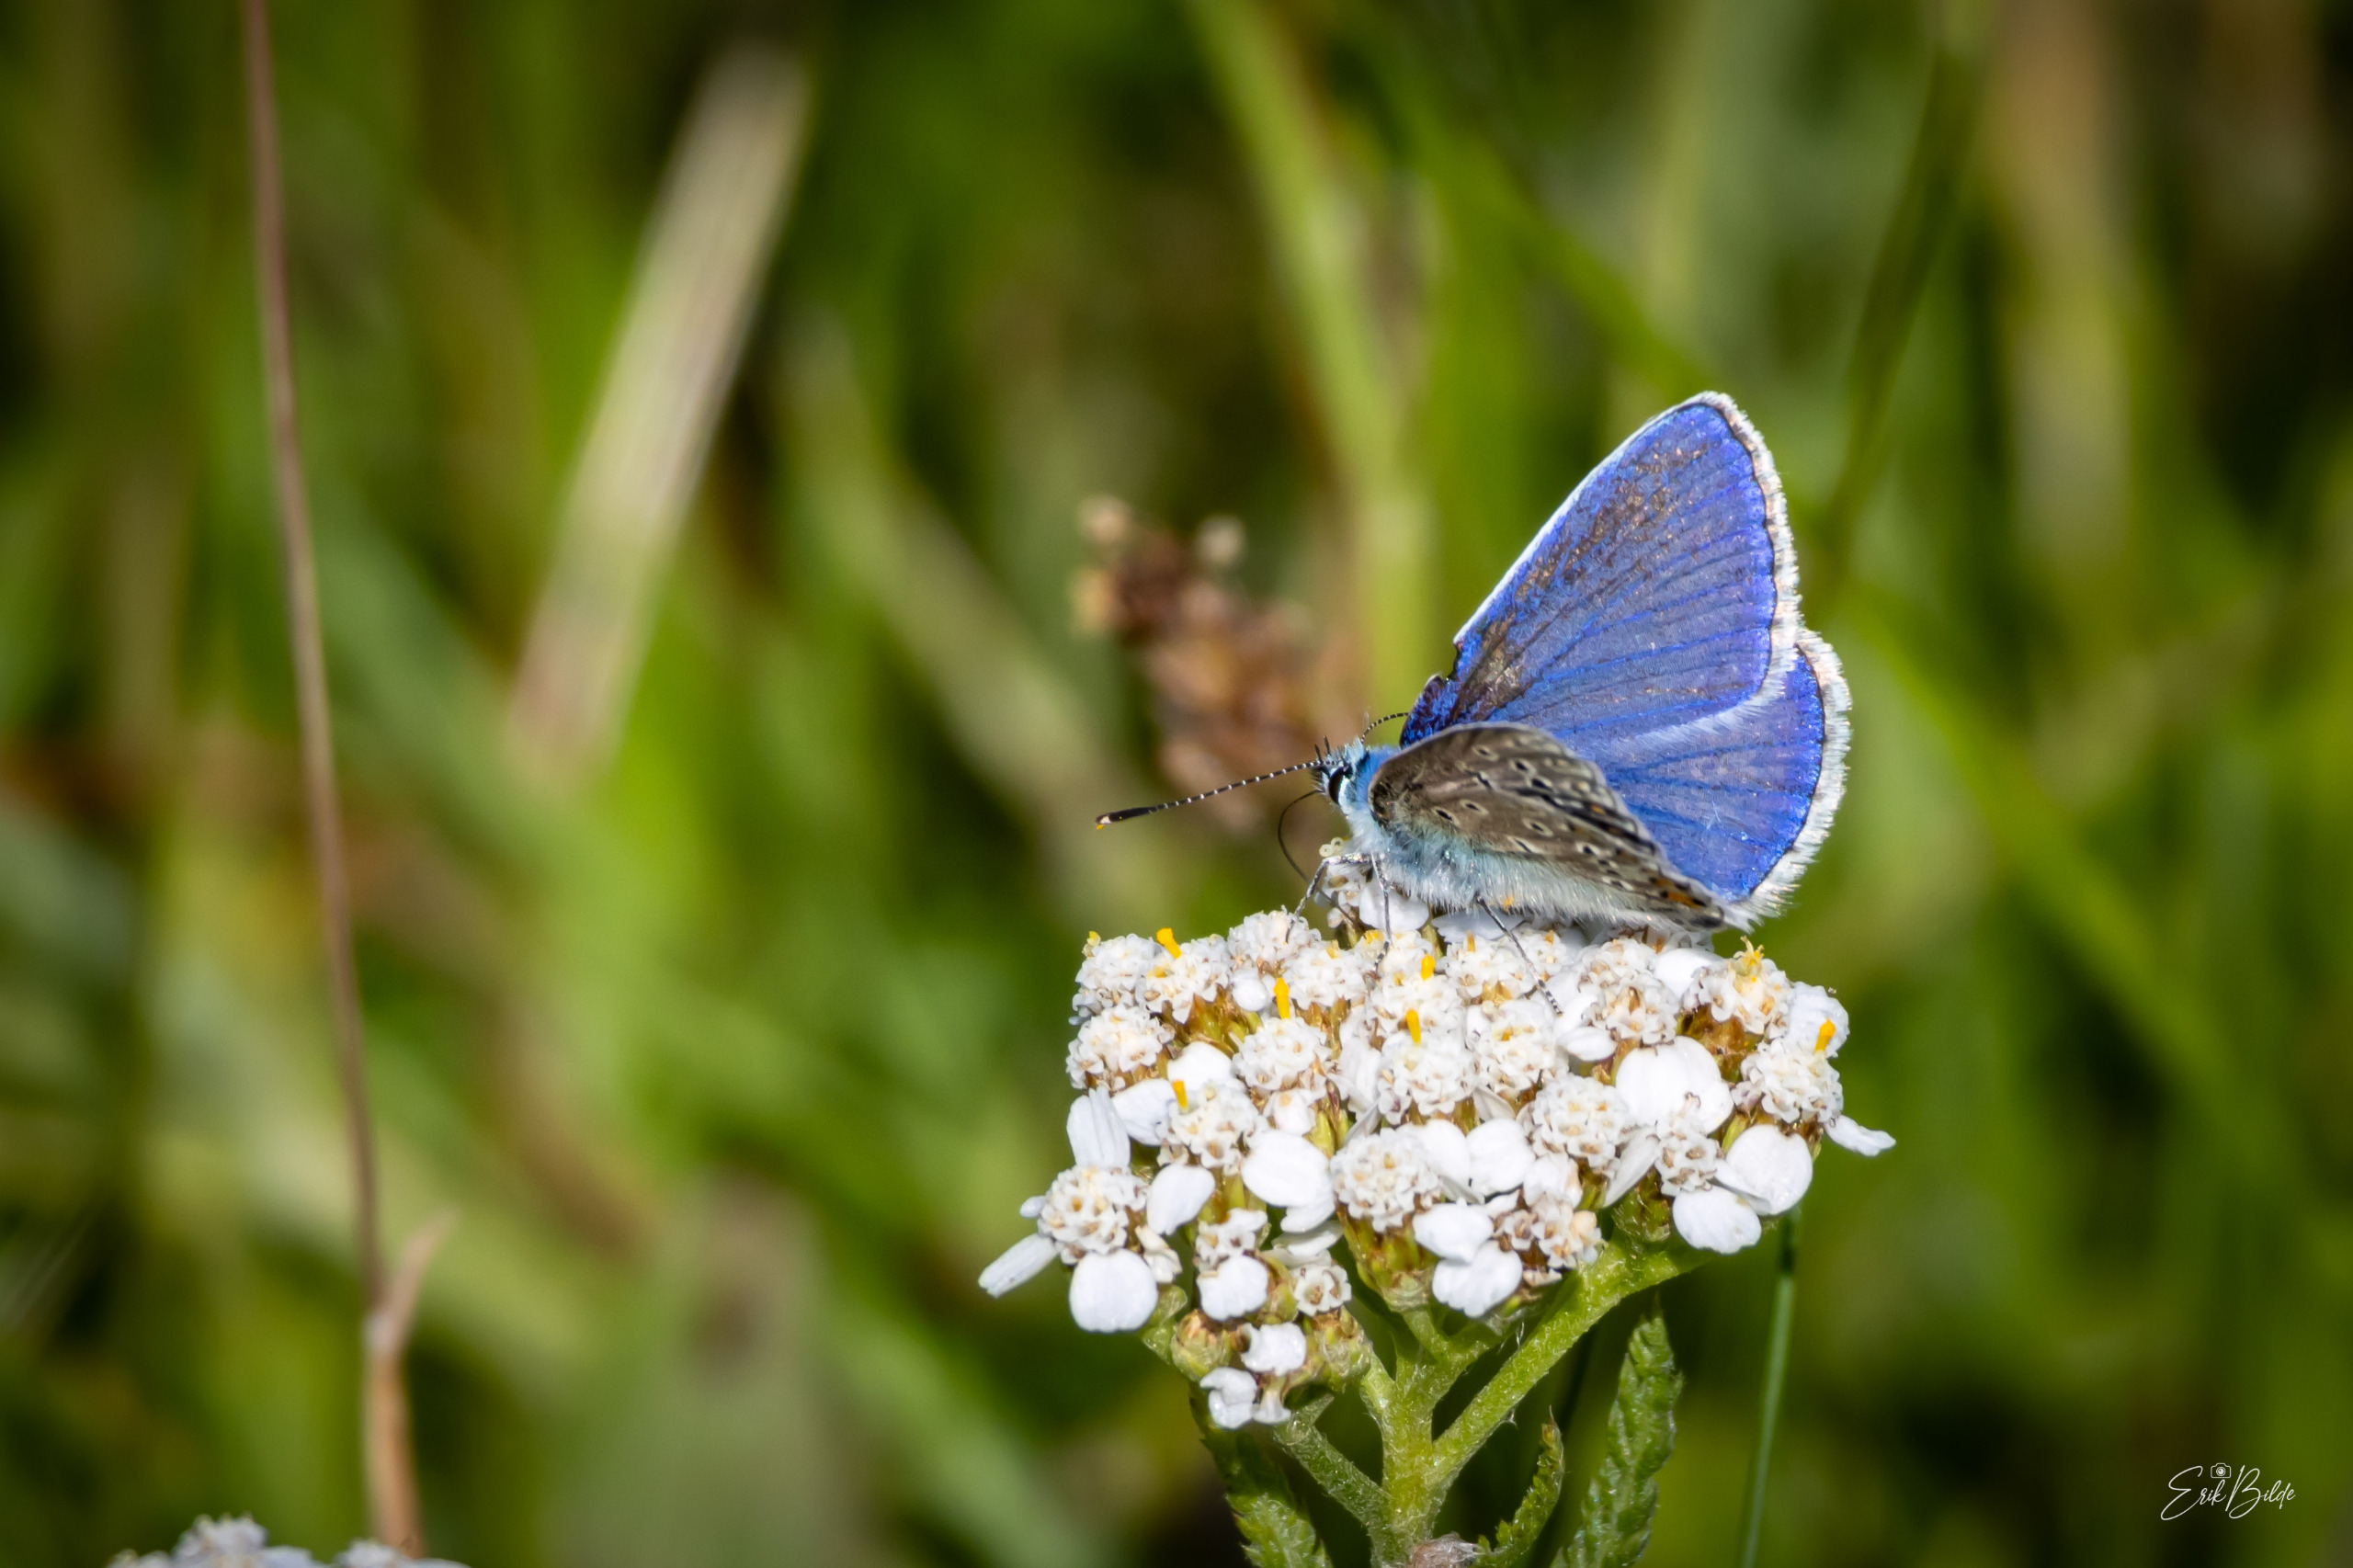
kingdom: Animalia
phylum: Arthropoda
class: Insecta
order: Lepidoptera
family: Lycaenidae
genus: Polyommatus
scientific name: Polyommatus icarus
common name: Almindelig blåfugl
